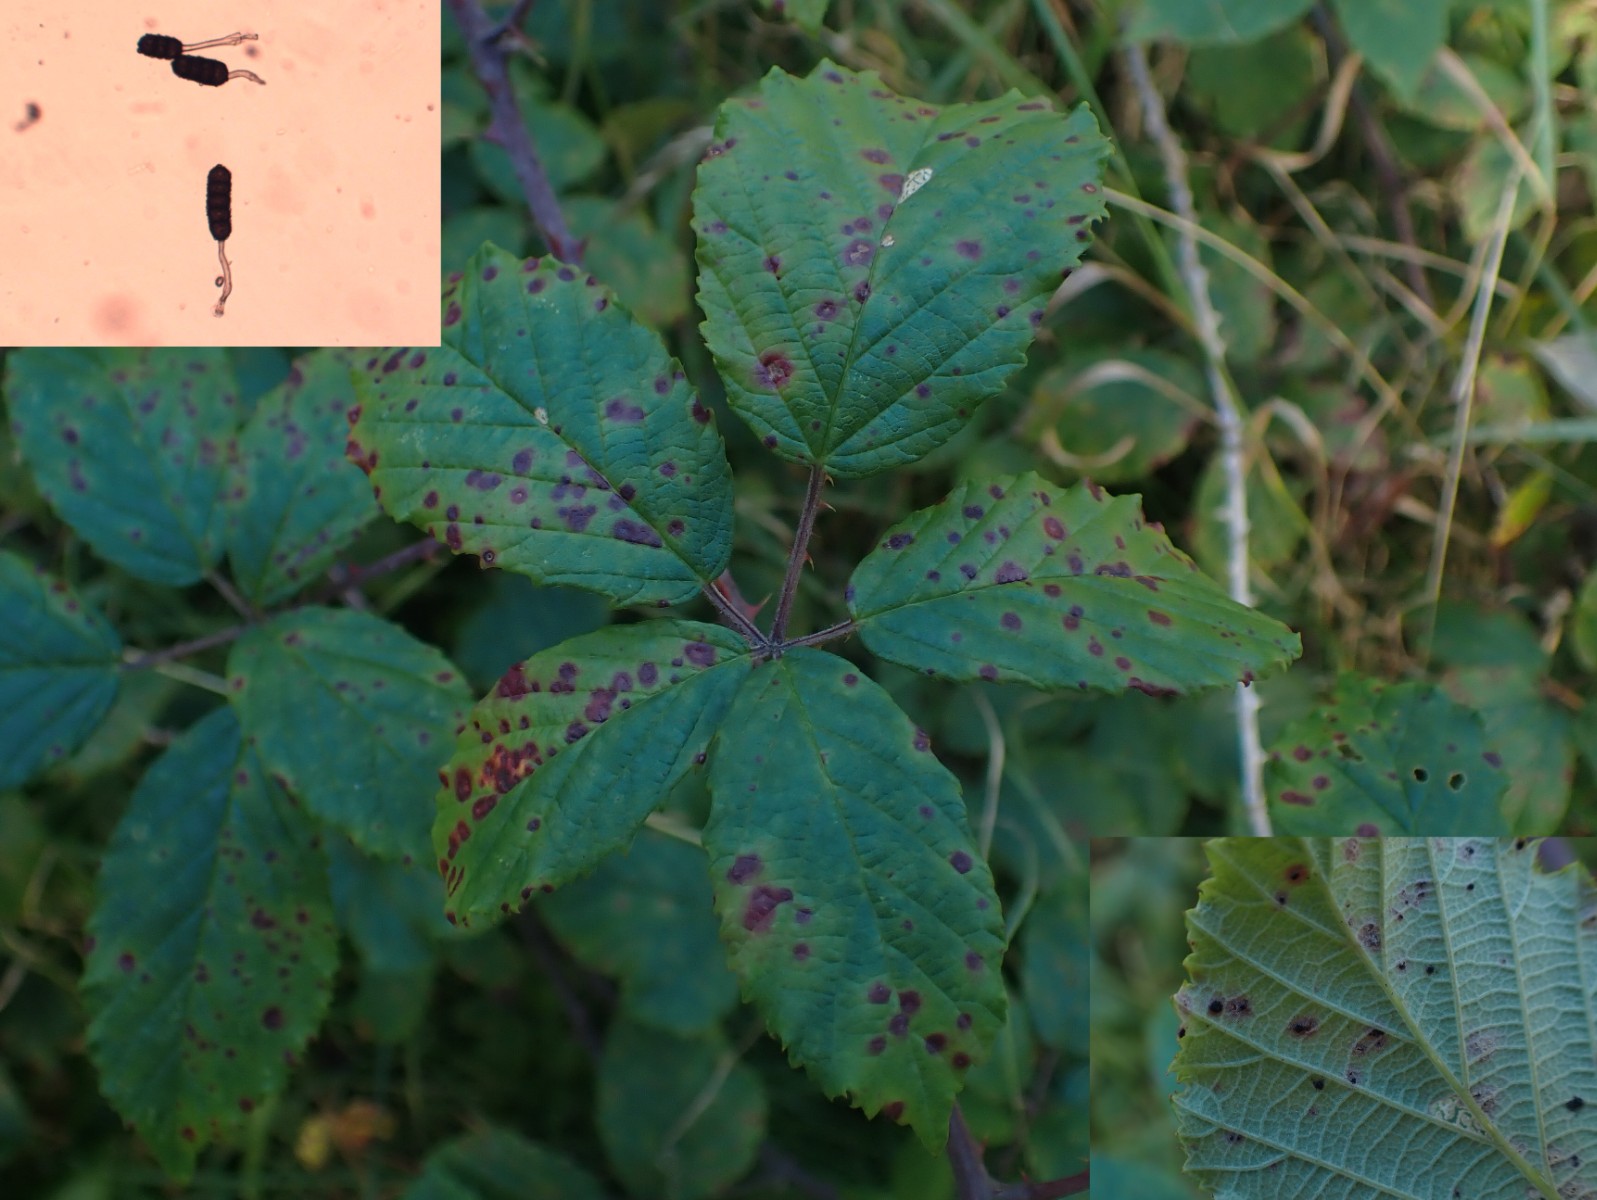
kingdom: Fungi
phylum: Basidiomycota
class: Pucciniomycetes
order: Pucciniales
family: Phragmidiaceae
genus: Phragmidium
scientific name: Phragmidium violaceum
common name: violet flercellerust
